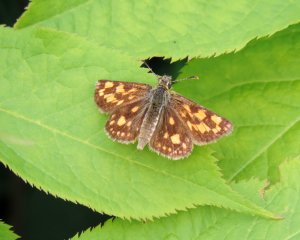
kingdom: Animalia
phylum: Arthropoda
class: Insecta
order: Lepidoptera
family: Hesperiidae
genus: Carterocephalus
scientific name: Carterocephalus palaemon
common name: Chequered Skipper
